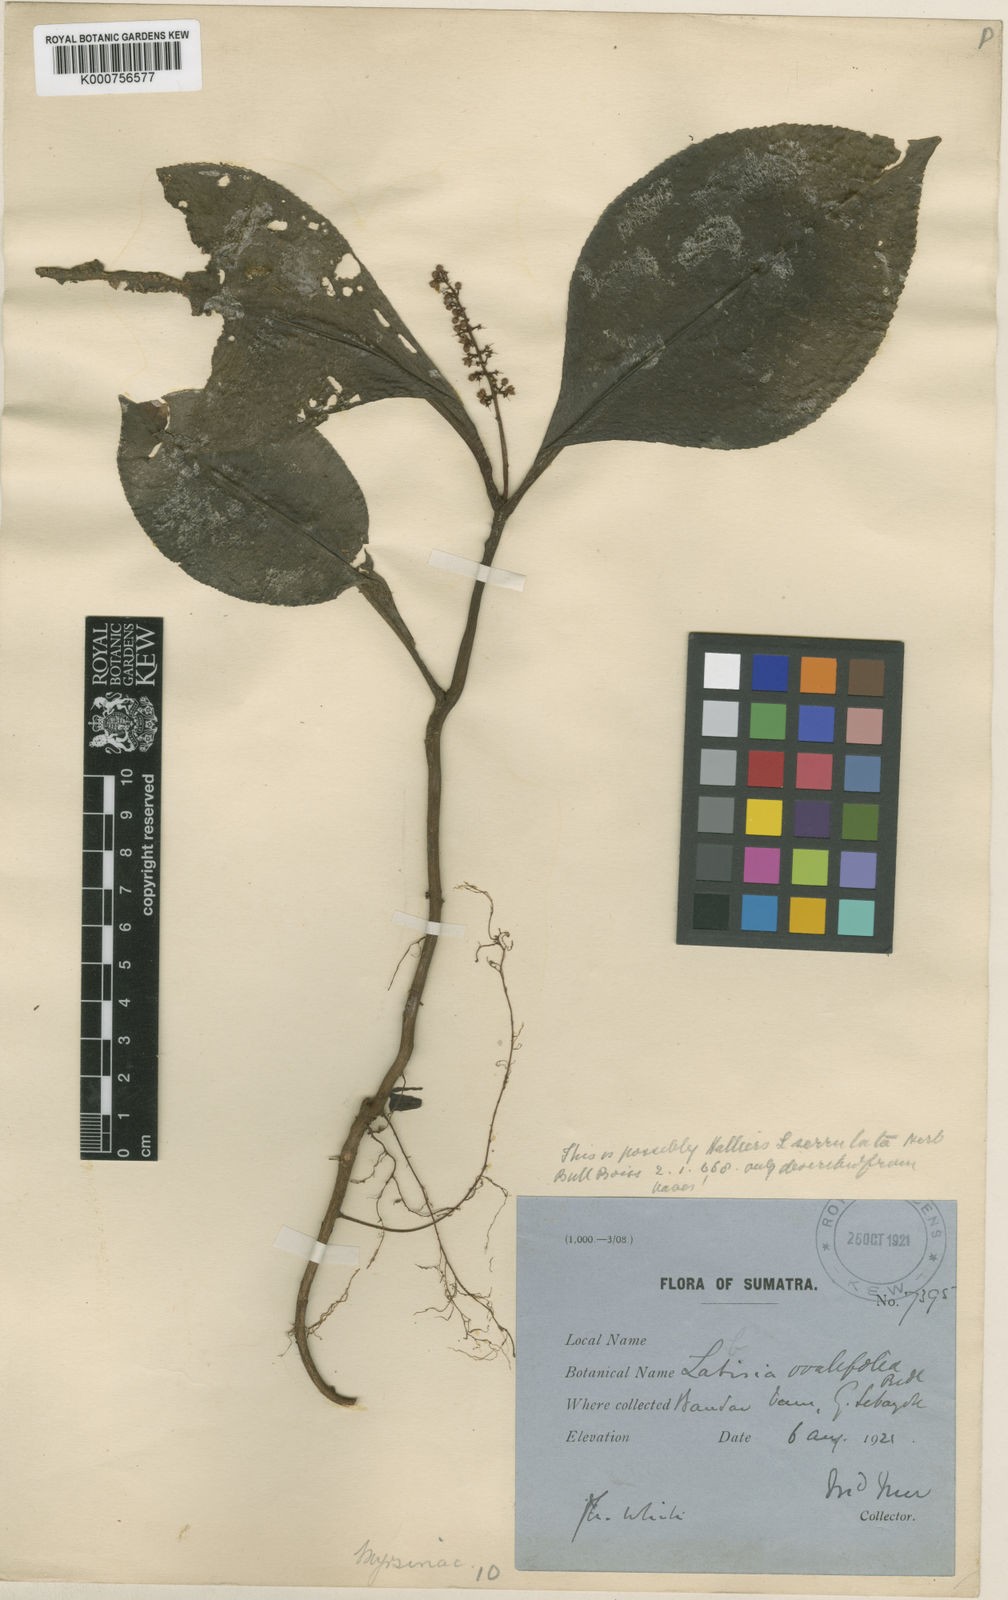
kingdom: Plantae
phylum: Tracheophyta
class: Magnoliopsida
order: Ericales
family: Primulaceae
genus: Labisia
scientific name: Labisia serrulata
